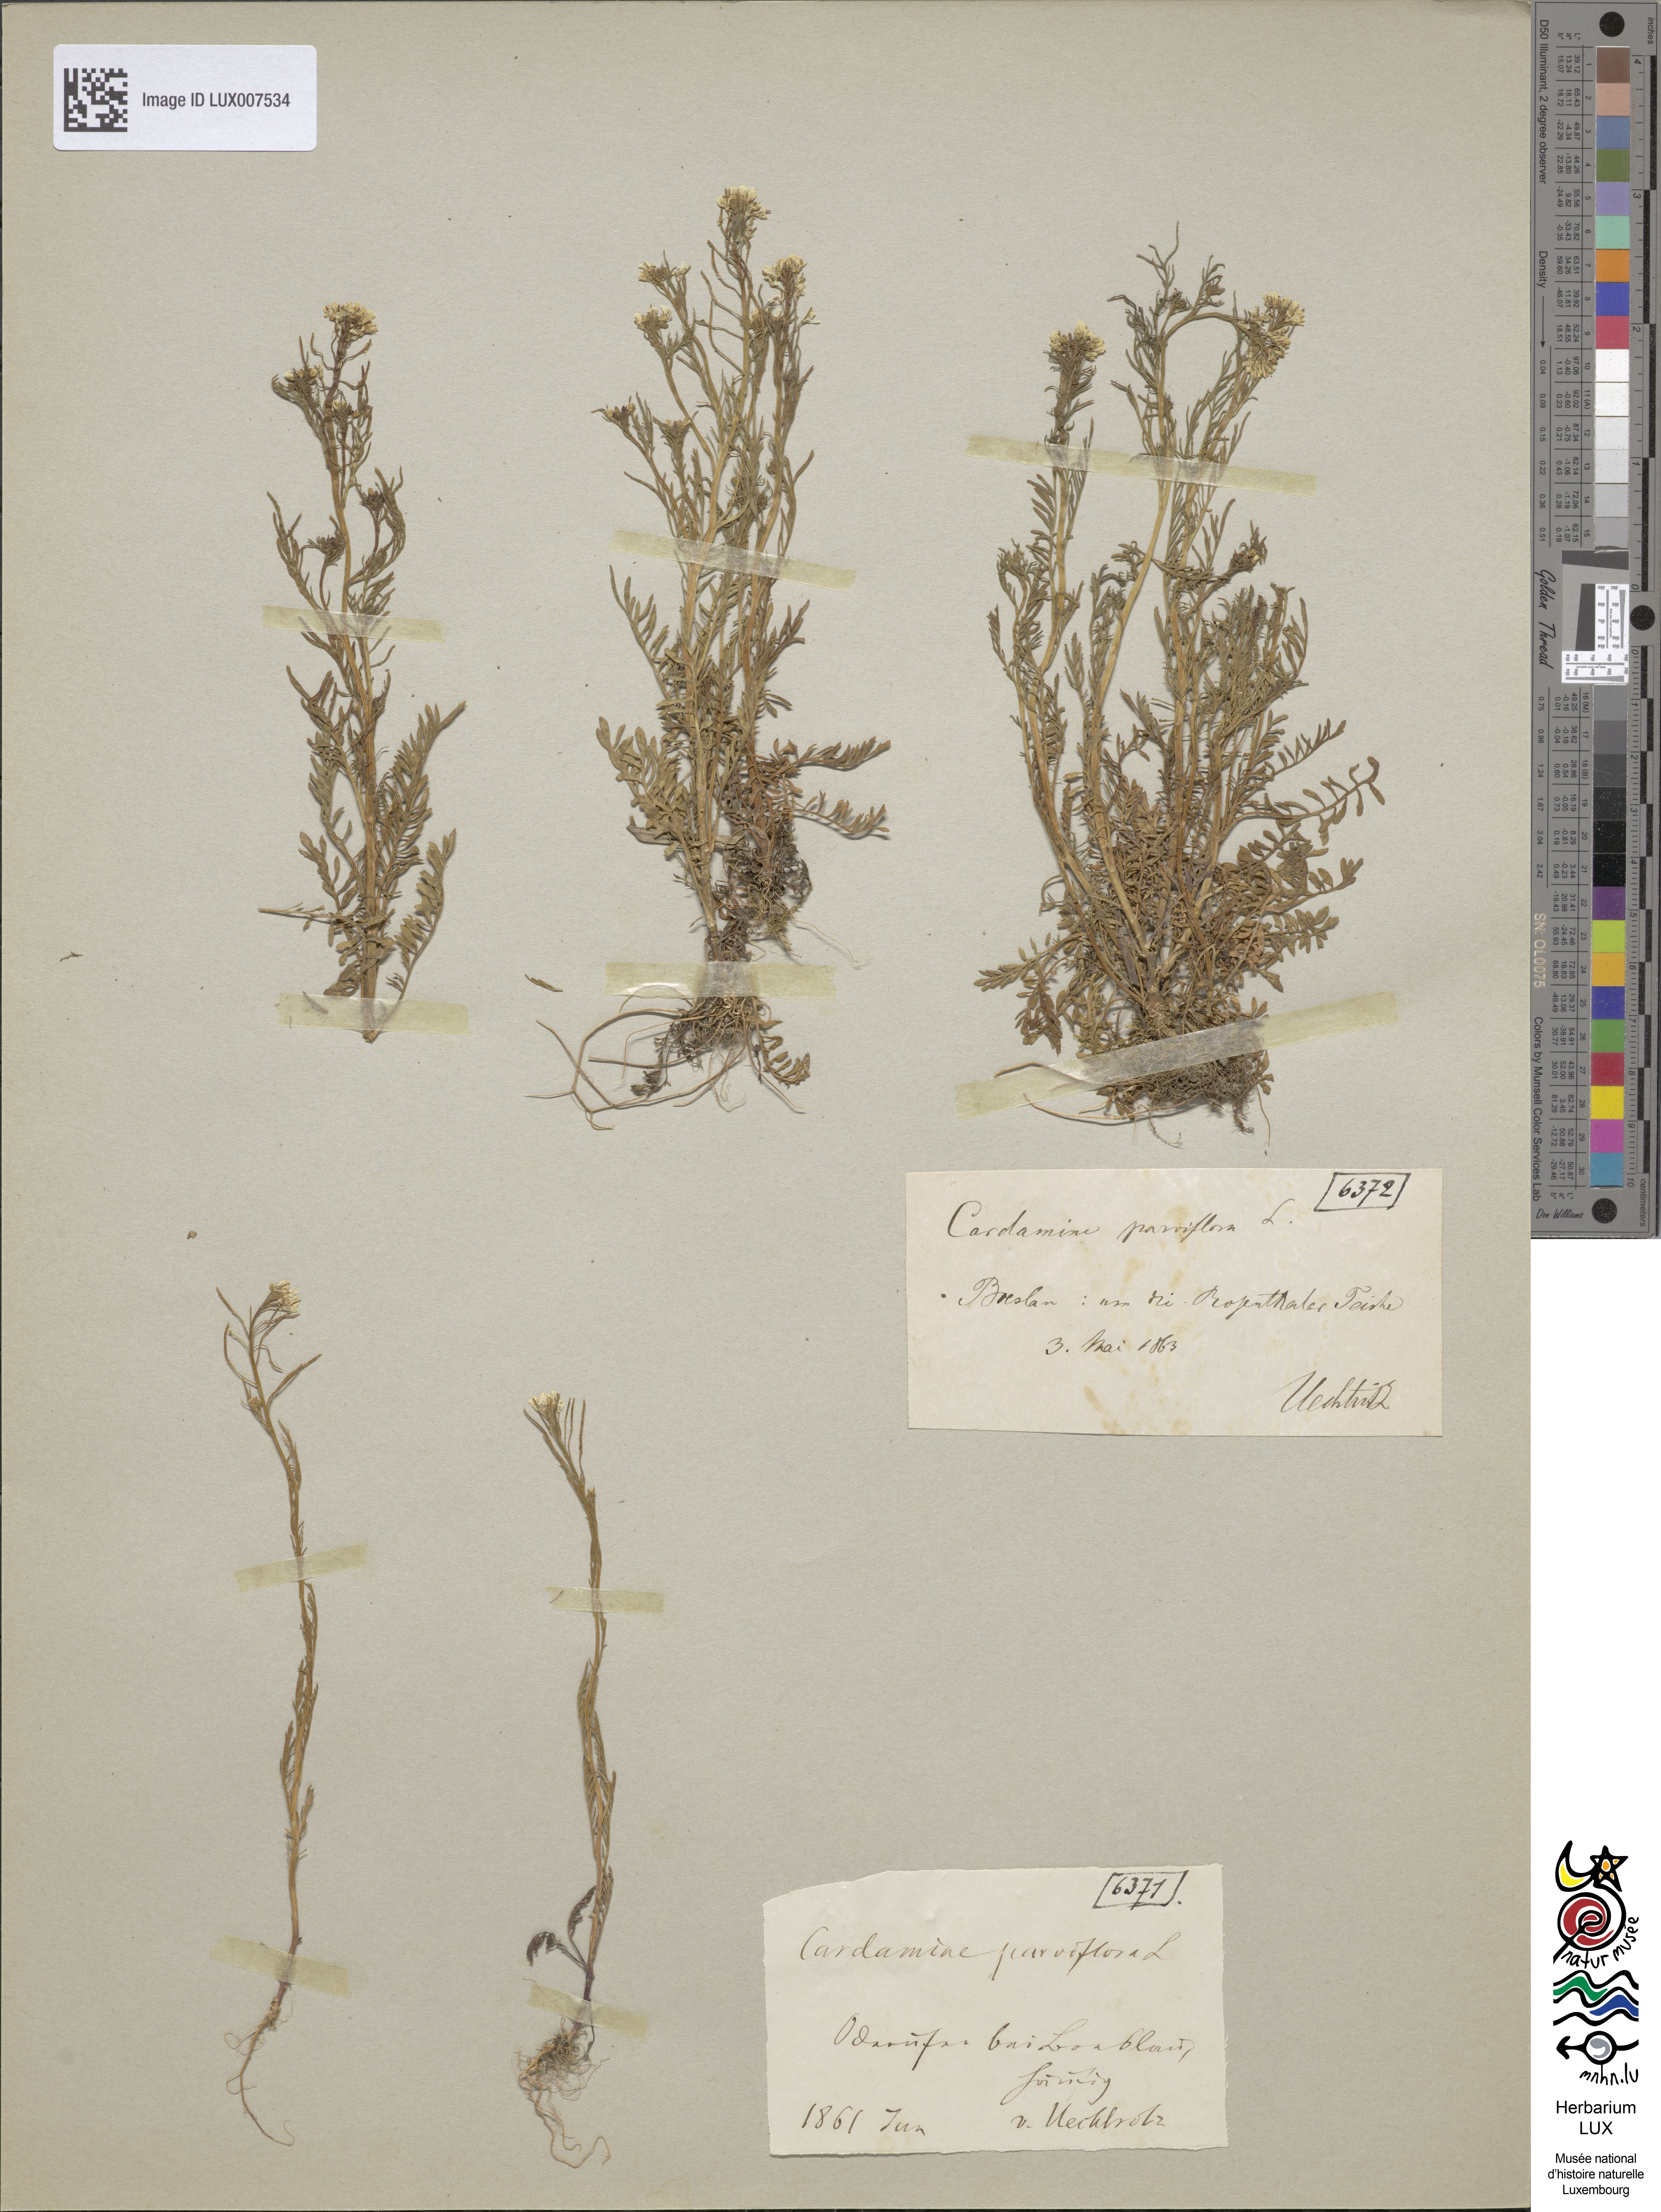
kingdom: Plantae
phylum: Tracheophyta
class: Magnoliopsida
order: Brassicales
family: Brassicaceae
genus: Cardamine
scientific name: Cardamine parviflora
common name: Sand bittercress
